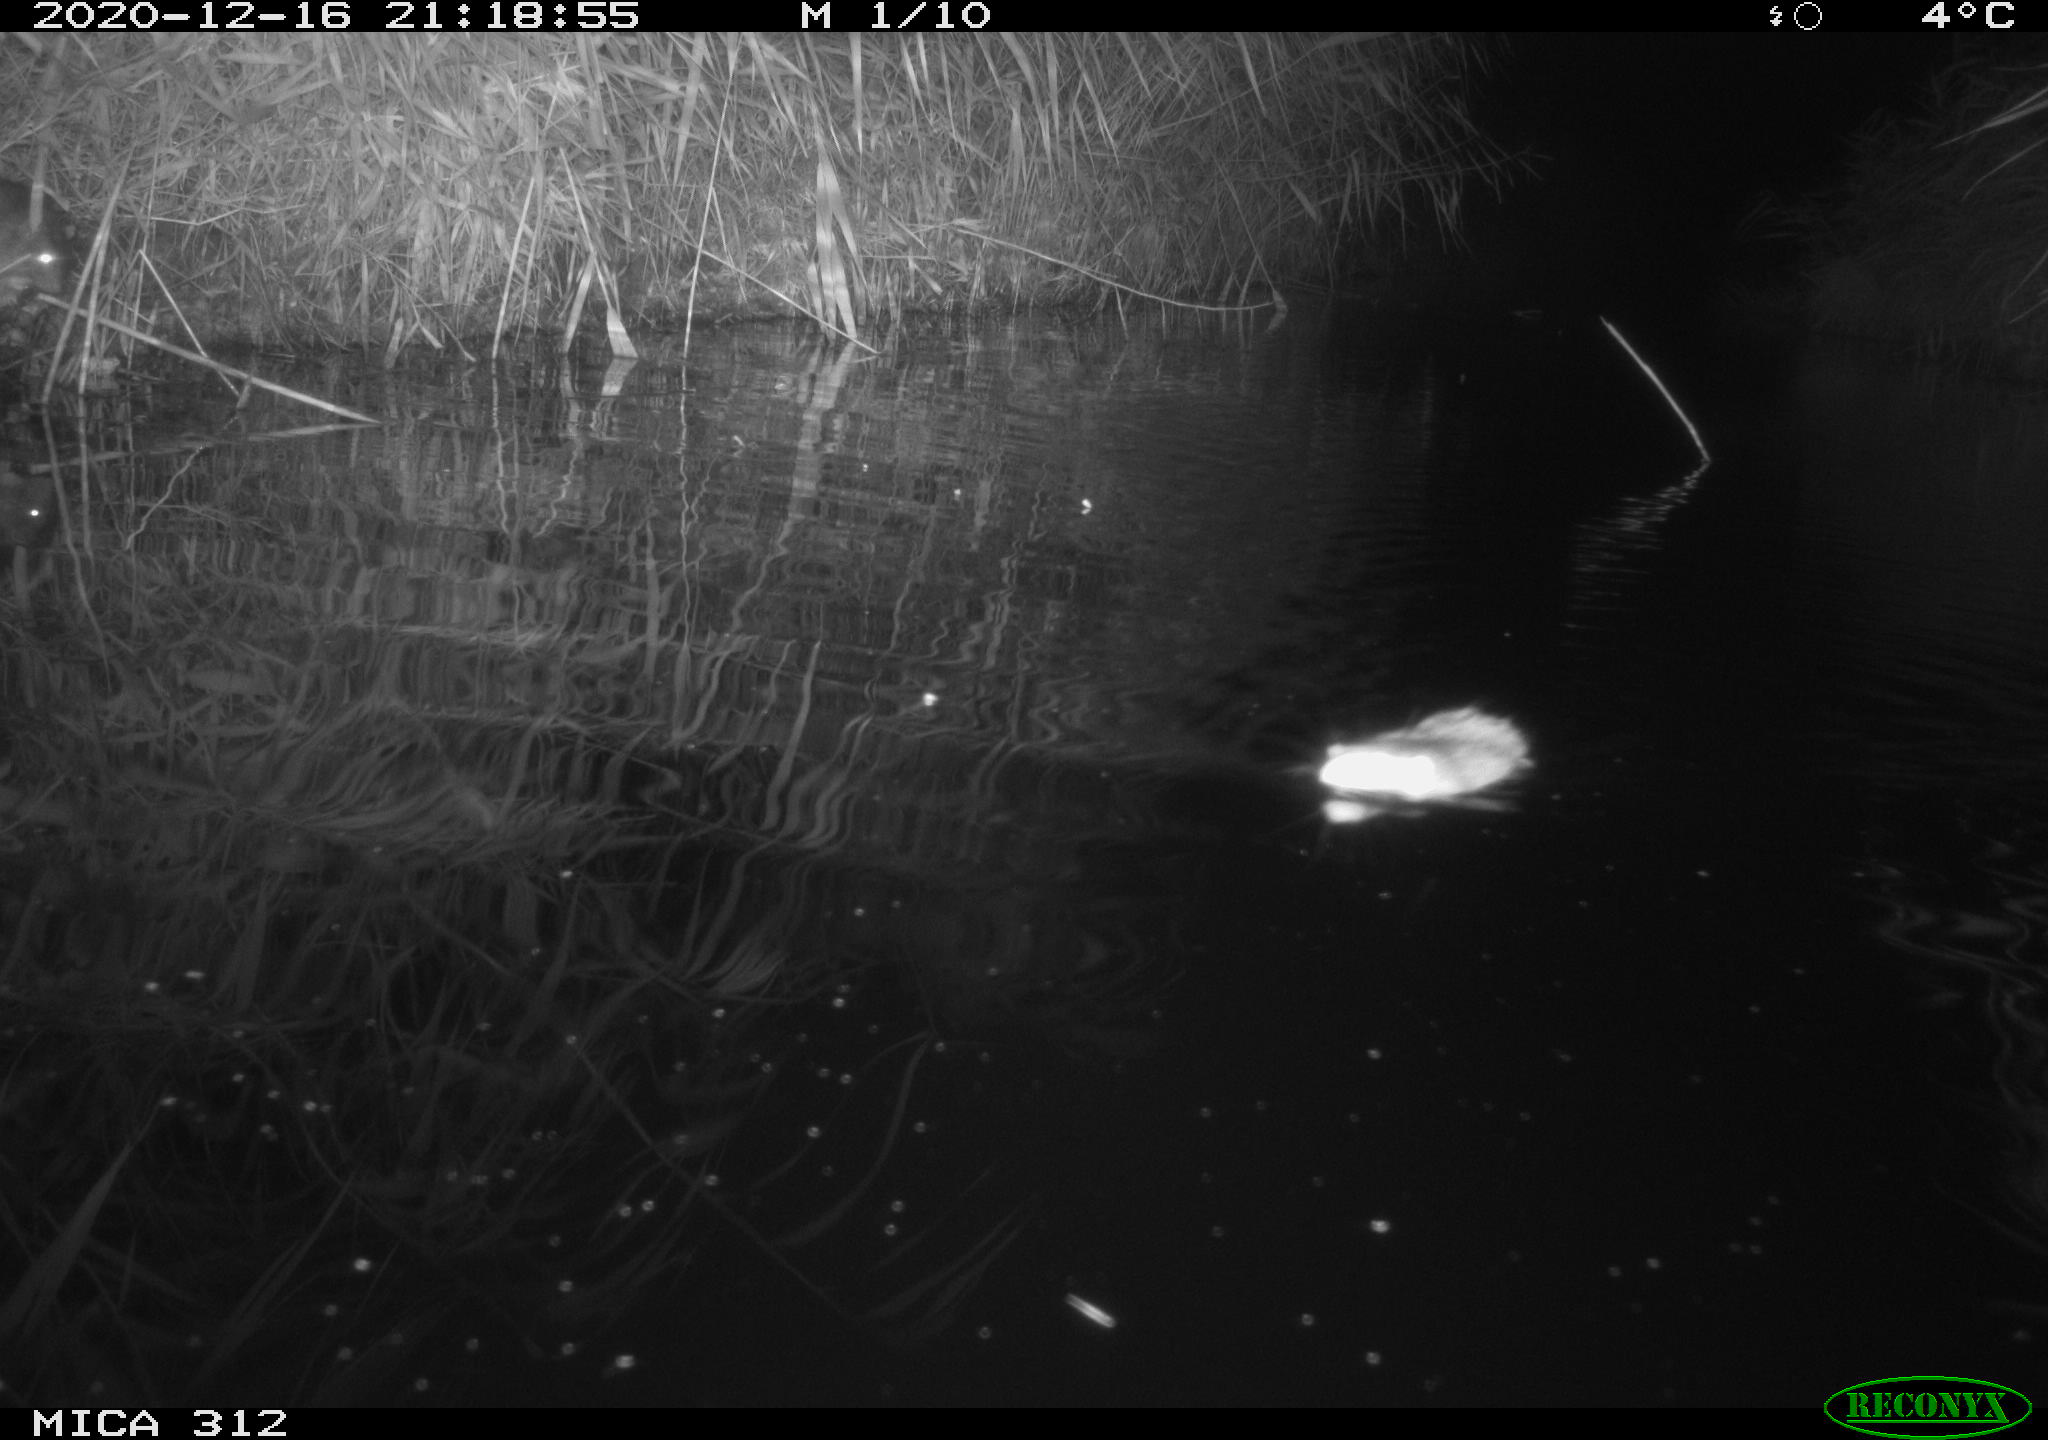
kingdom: Animalia
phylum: Chordata
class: Mammalia
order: Rodentia
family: Muridae
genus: Rattus
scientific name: Rattus norvegicus
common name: Brown rat
